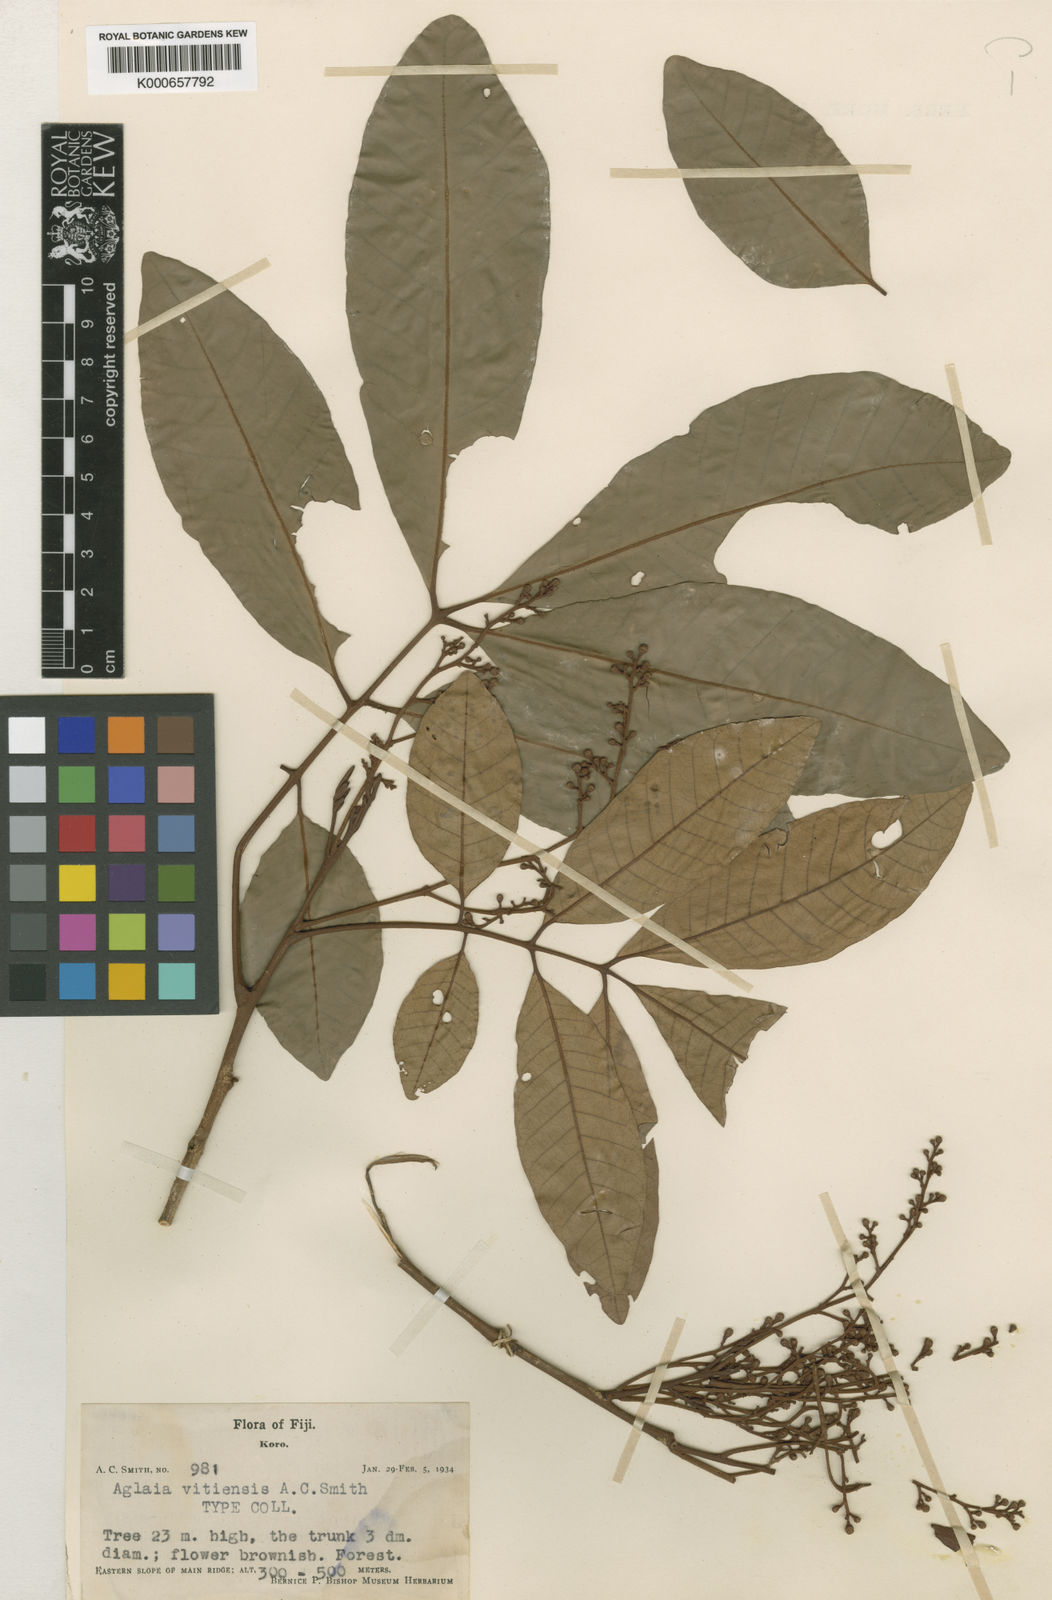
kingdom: Plantae
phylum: Tracheophyta
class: Magnoliopsida
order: Sapindales
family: Meliaceae
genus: Aglaia
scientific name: Aglaia vitiensis
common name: Lindiyango
